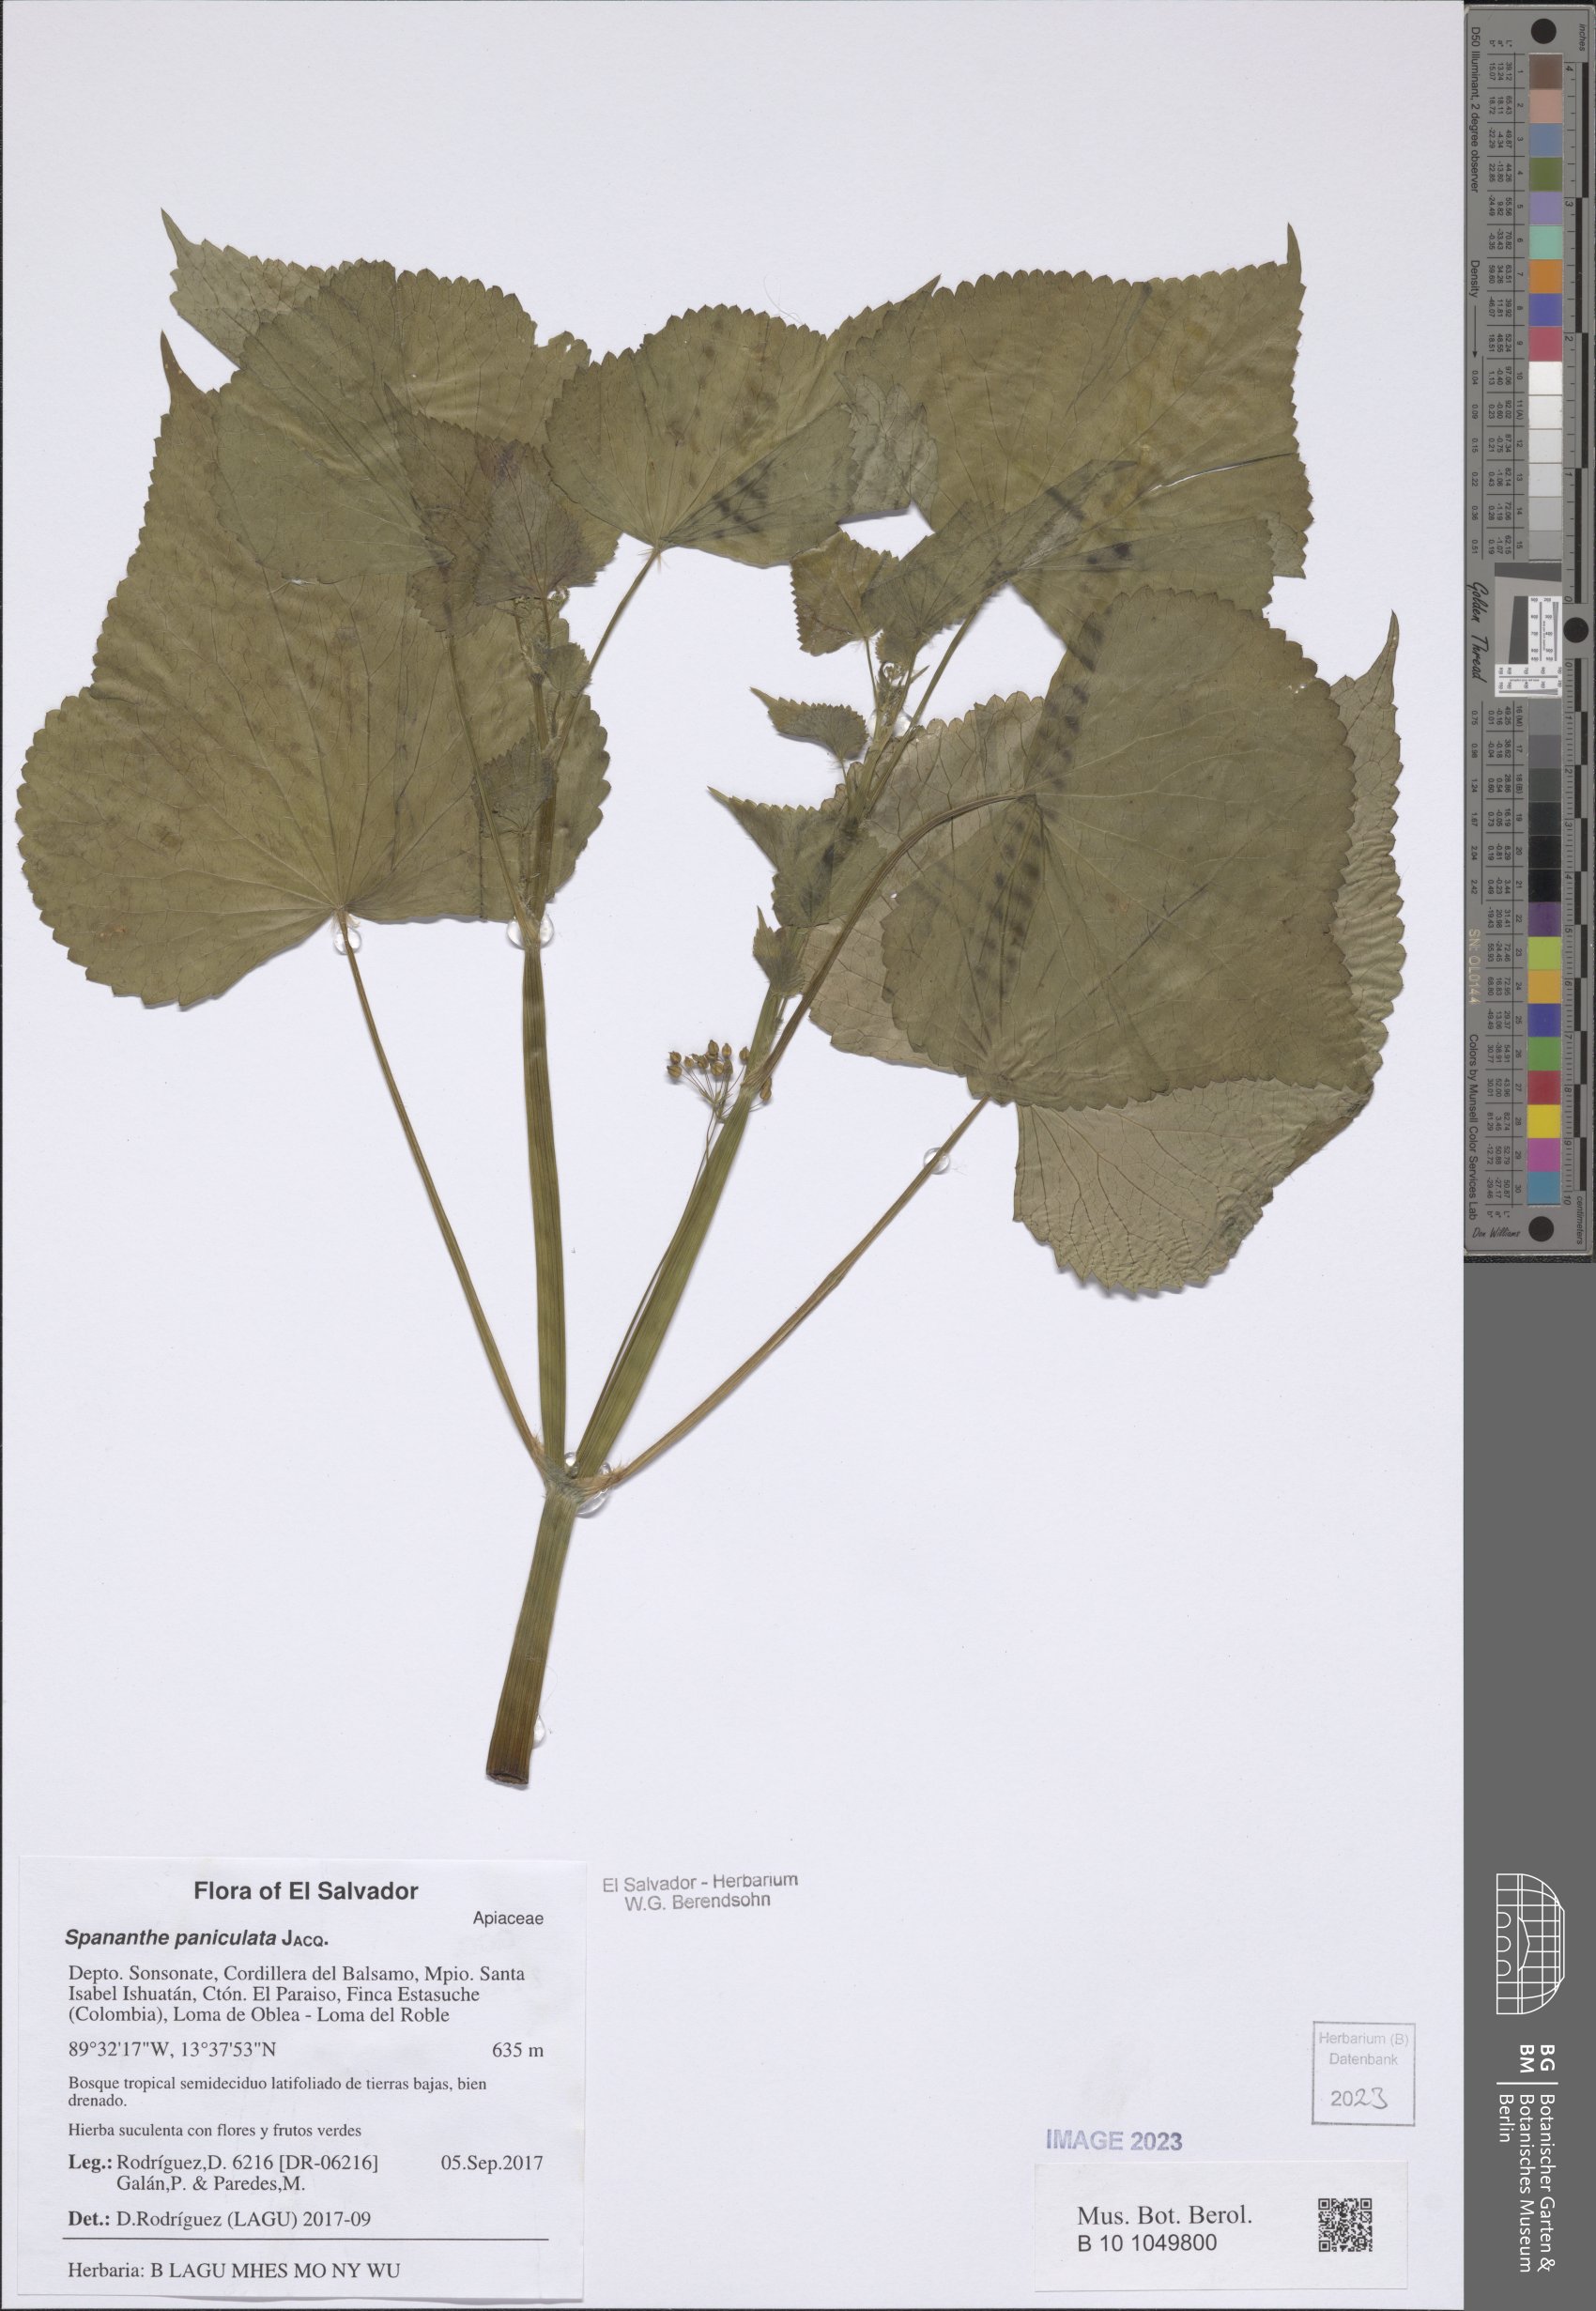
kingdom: Plantae
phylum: Tracheophyta
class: Magnoliopsida
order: Apiales
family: Apiaceae
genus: Spananthe
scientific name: Spananthe paniculata
